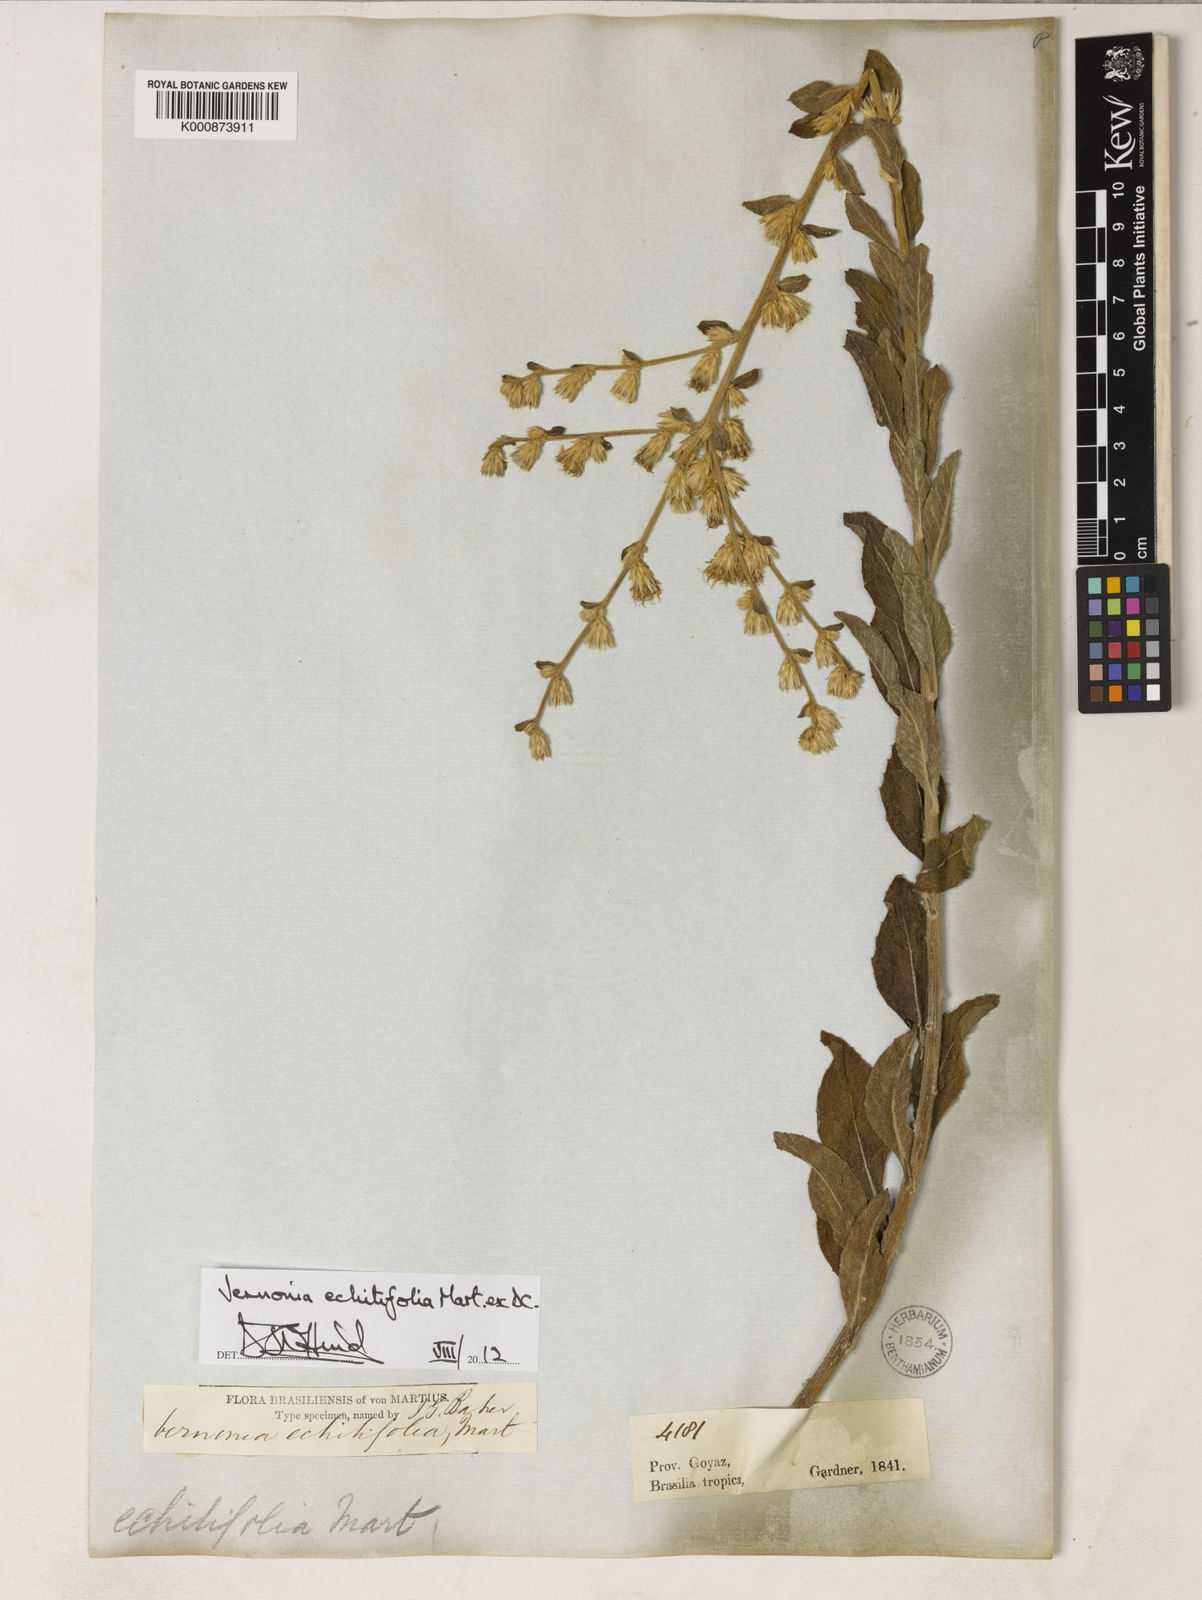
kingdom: Plantae
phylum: Tracheophyta
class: Magnoliopsida
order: Asterales
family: Asteraceae
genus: Acilepidopsis
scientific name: Acilepidopsis echitifolia
